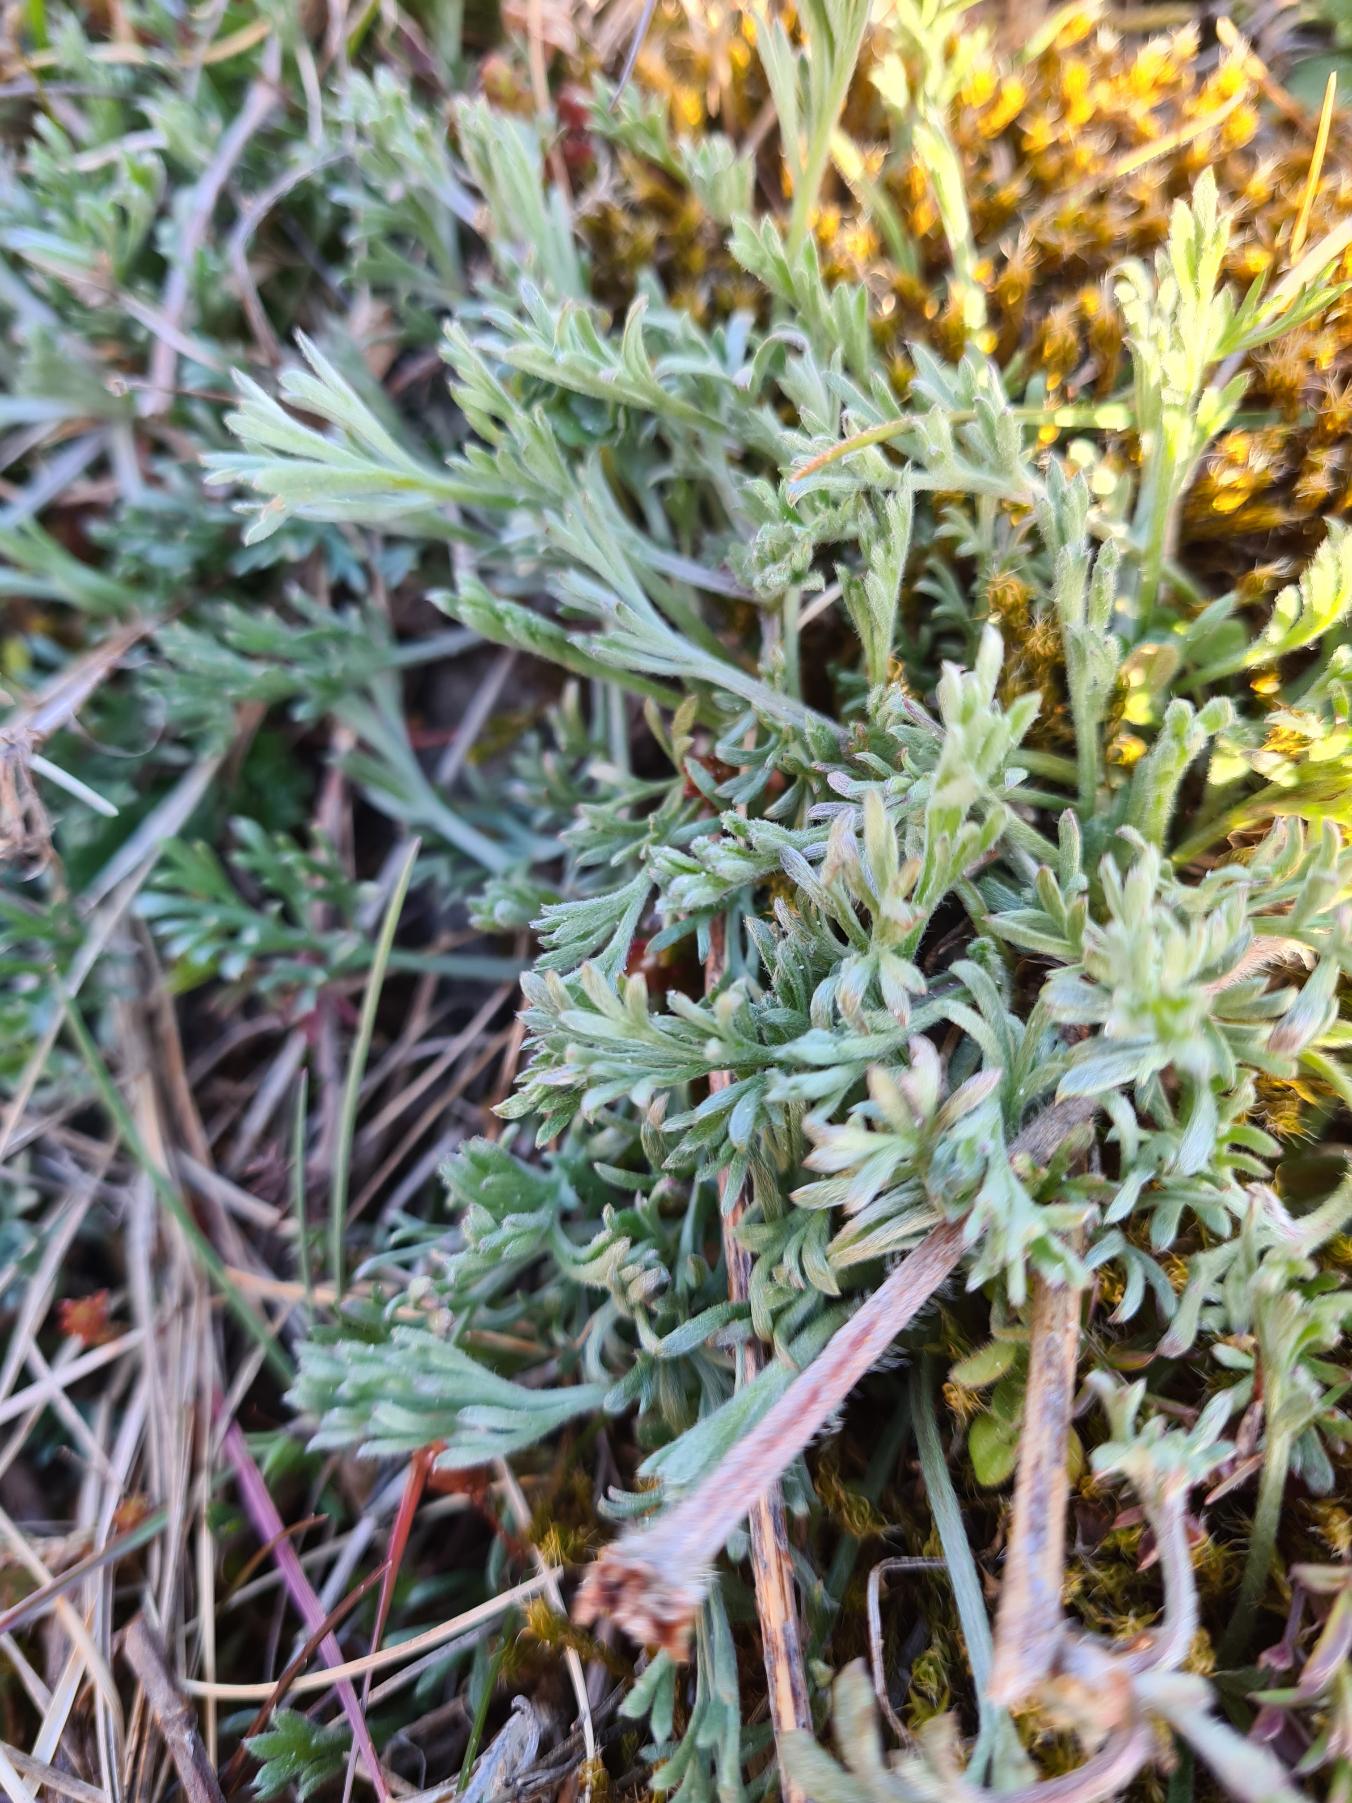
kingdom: Plantae
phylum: Tracheophyta
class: Magnoliopsida
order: Asterales
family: Asteraceae
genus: Artemisia
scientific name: Artemisia campestris
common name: Mark-bynke
